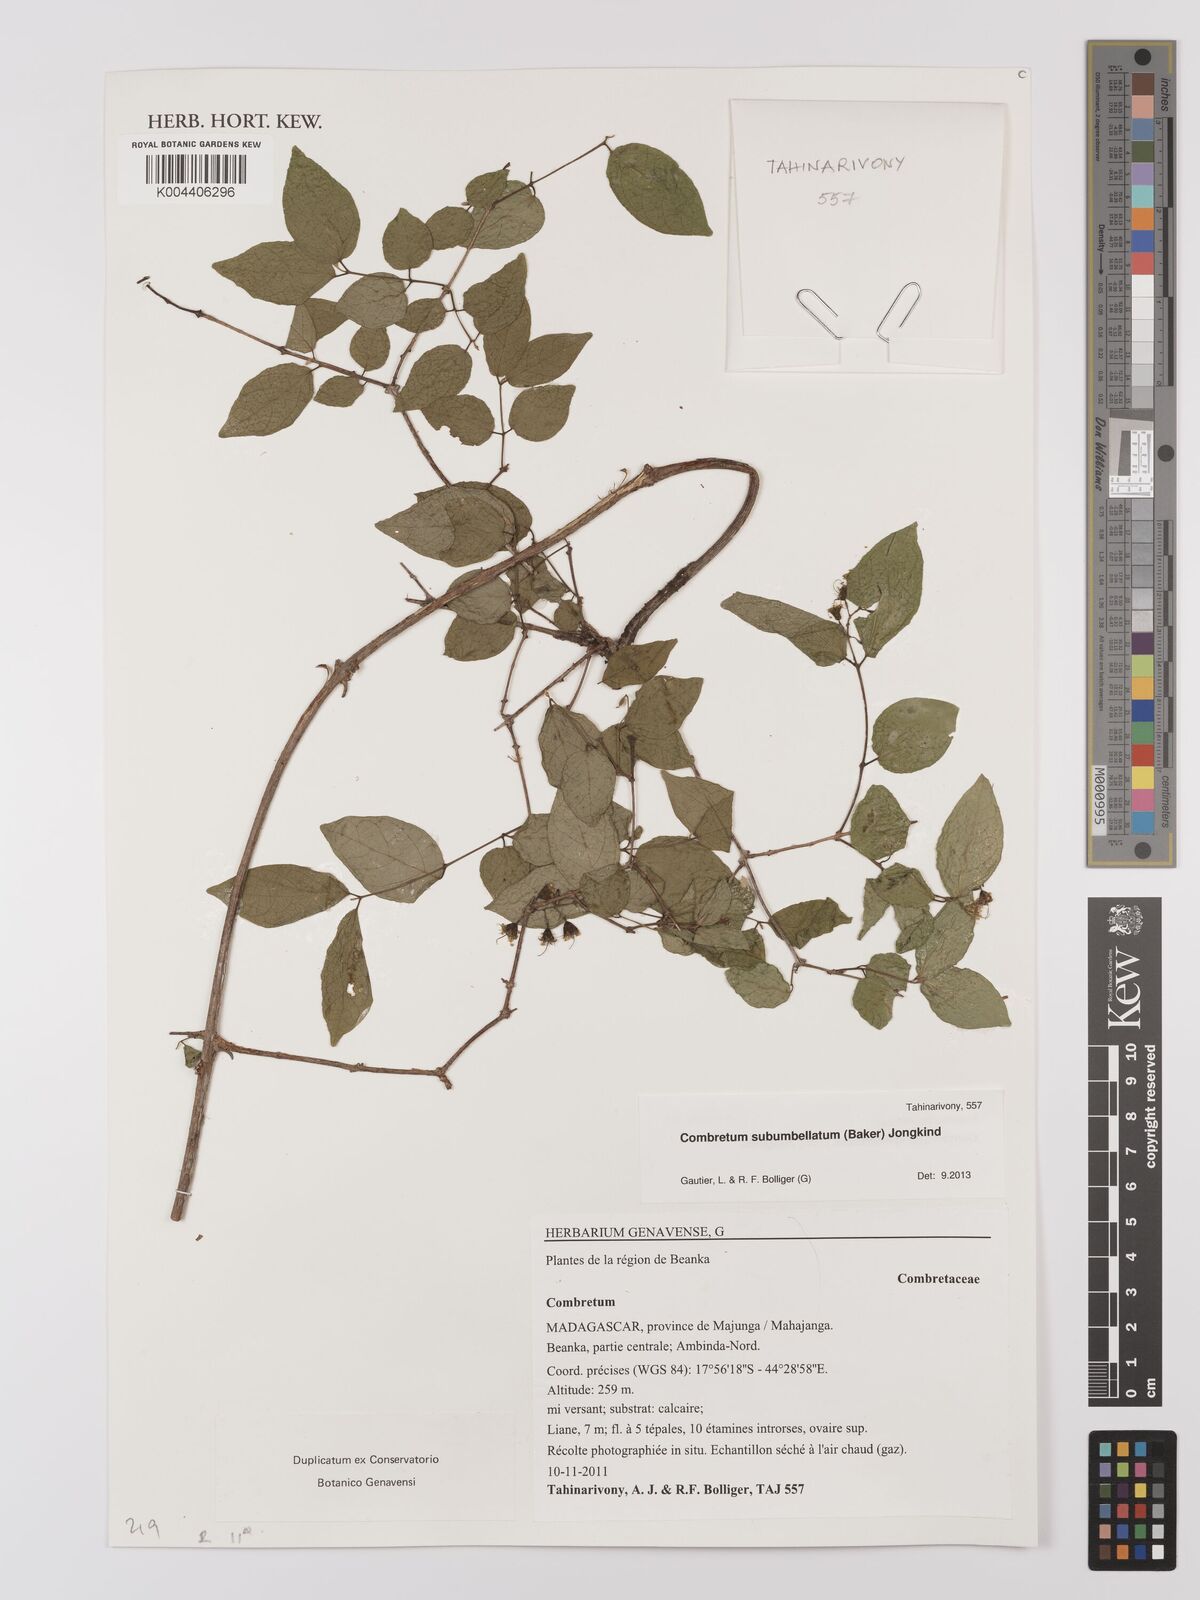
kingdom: Plantae
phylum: Tracheophyta
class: Magnoliopsida
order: Myrtales
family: Combretaceae
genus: Combretum
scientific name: Combretum subumbellatum
